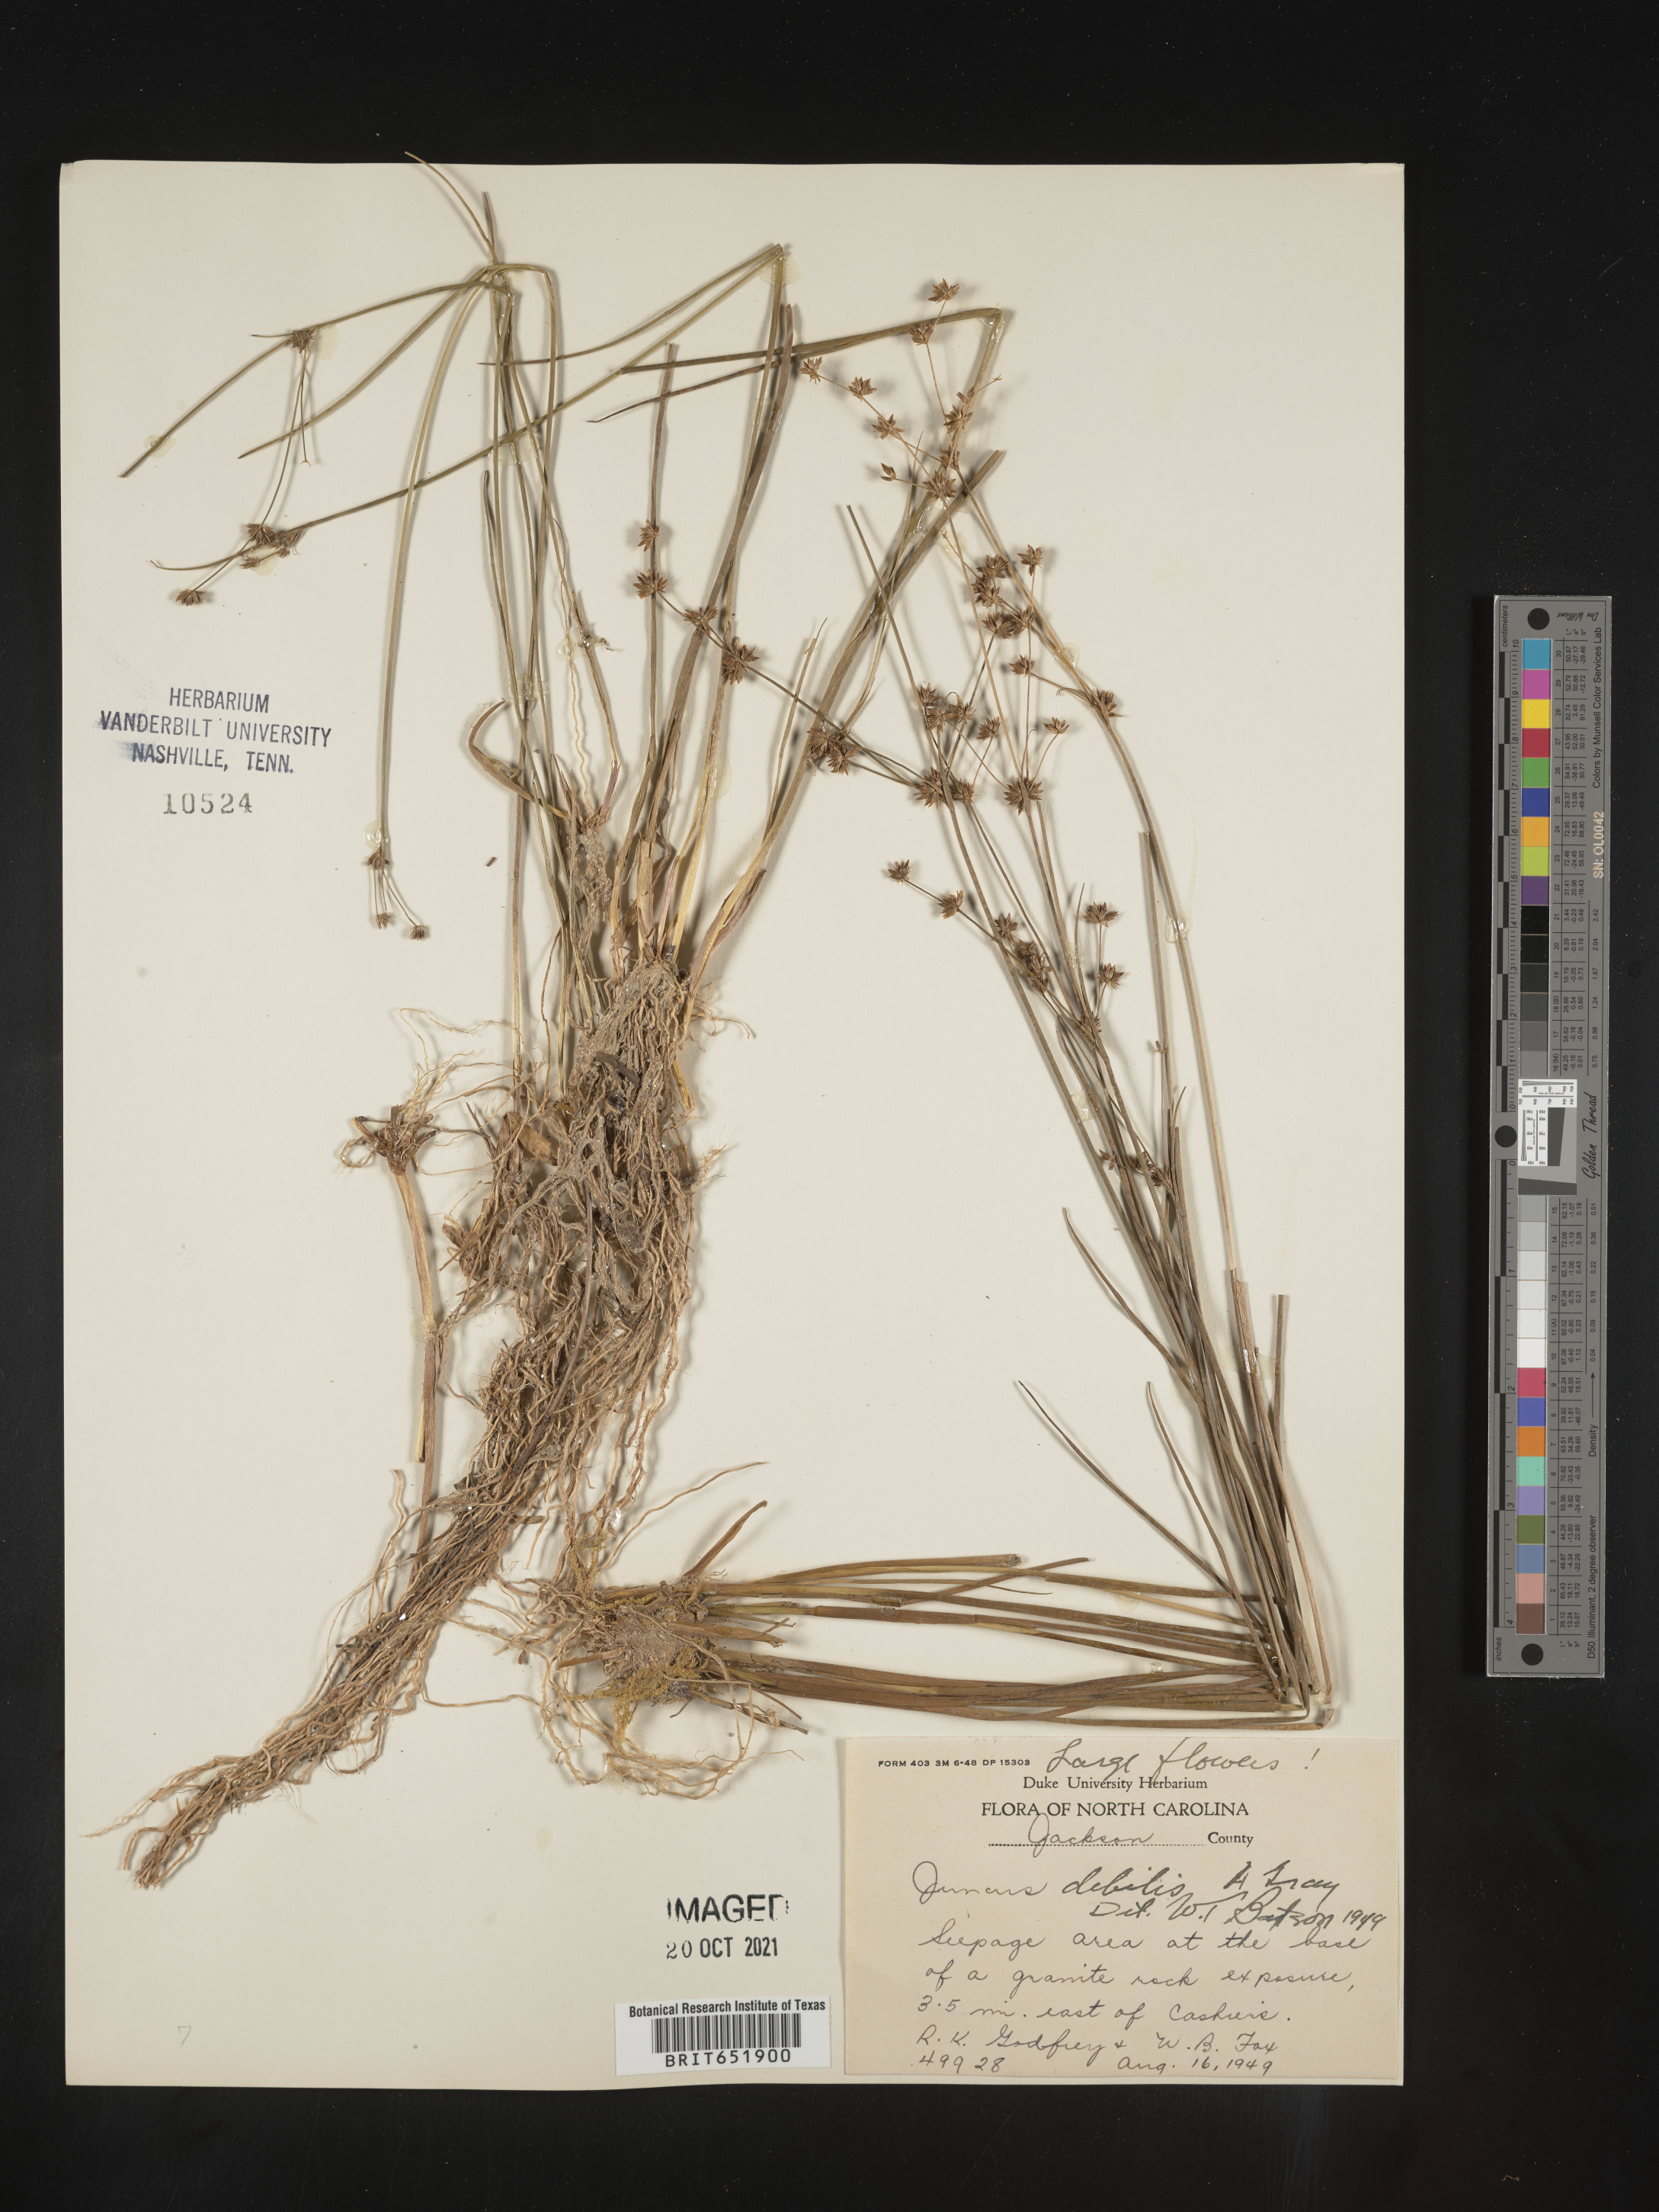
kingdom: Plantae
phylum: Tracheophyta
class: Liliopsida
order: Poales
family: Juncaceae
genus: Juncus
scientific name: Juncus debilis
